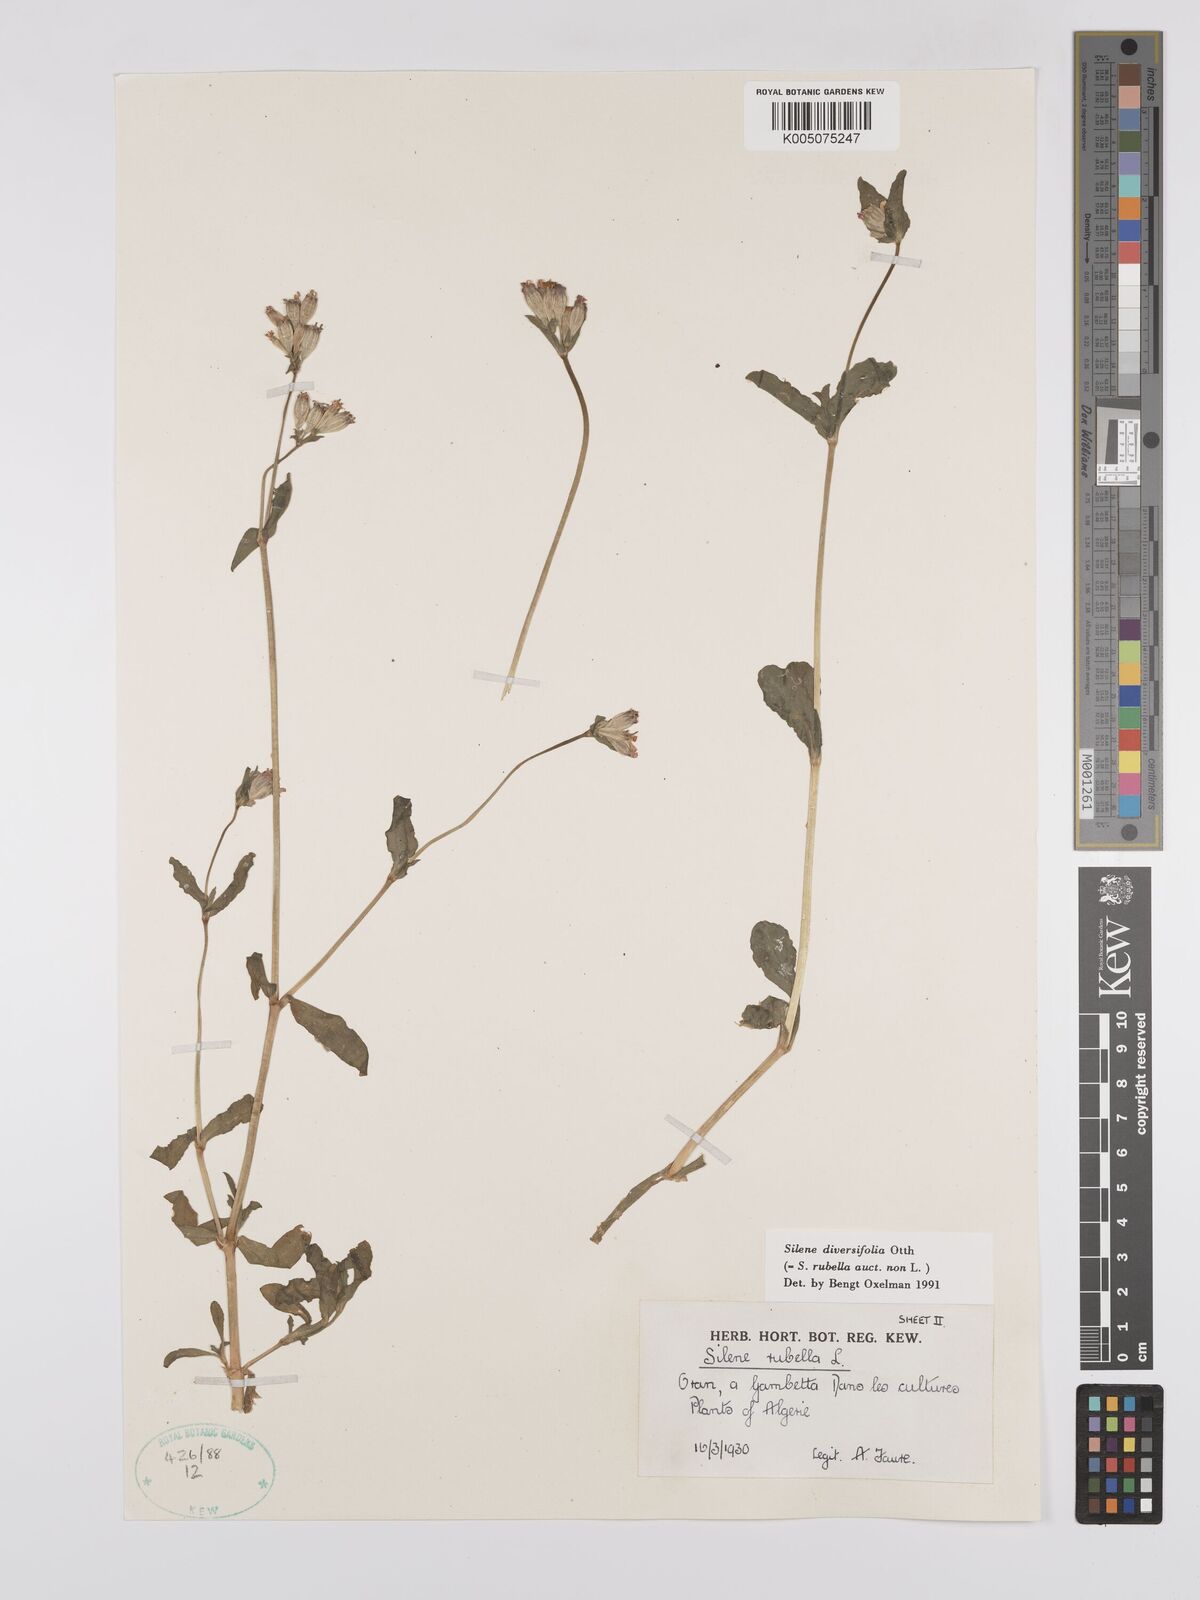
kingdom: Plantae
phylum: Tracheophyta
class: Magnoliopsida
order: Caryophyllales
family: Caryophyllaceae
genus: Silene
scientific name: Silene rubella
